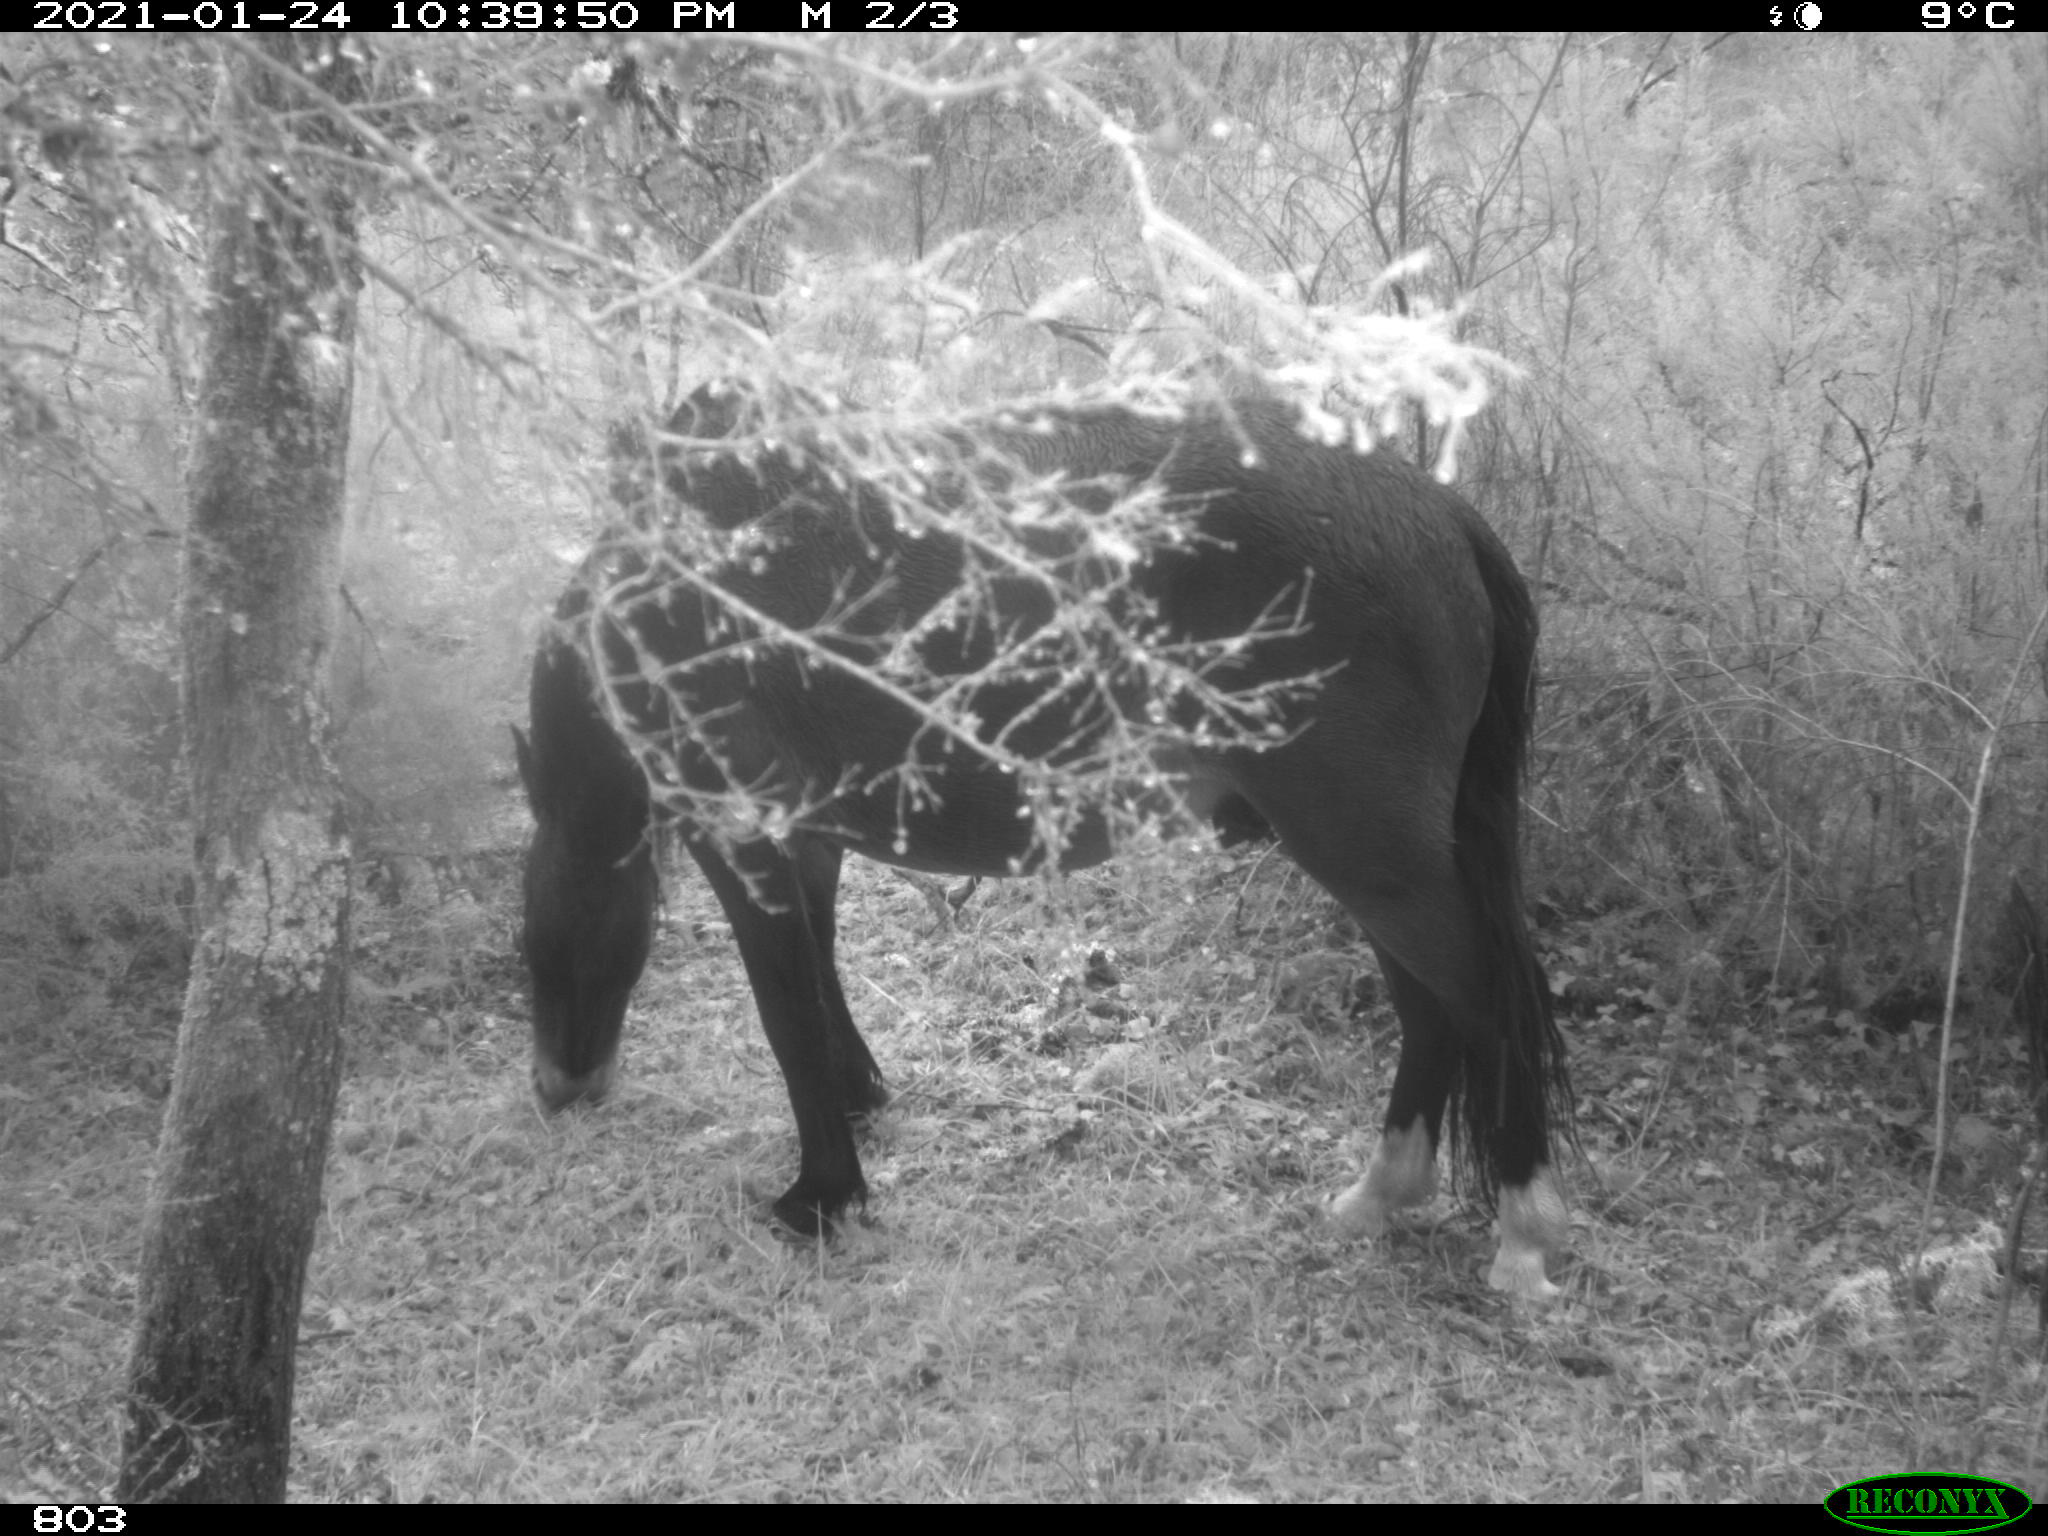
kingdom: Animalia
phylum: Chordata
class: Mammalia
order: Perissodactyla
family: Equidae
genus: Equus
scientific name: Equus caballus
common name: Horse
